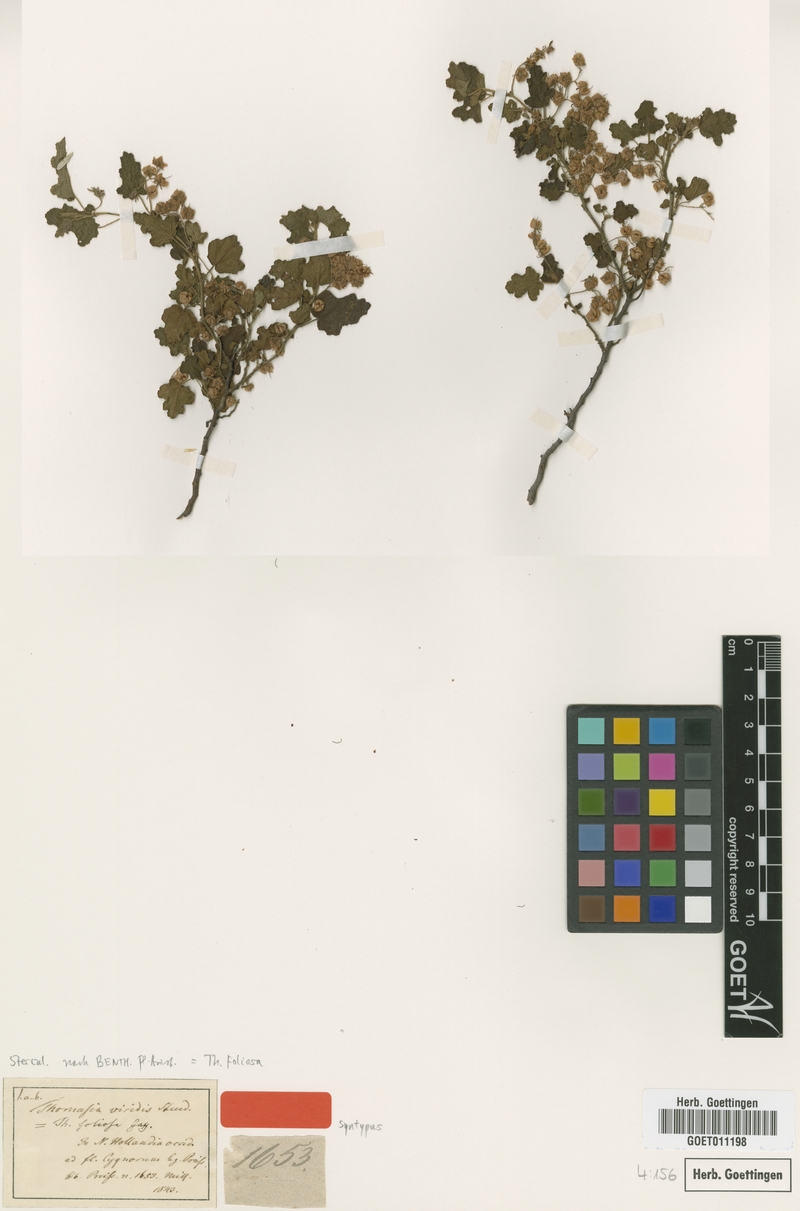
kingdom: Plantae
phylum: Tracheophyta
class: Magnoliopsida
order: Malvales
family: Malvaceae
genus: Thomasia
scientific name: Thomasia foliosa
